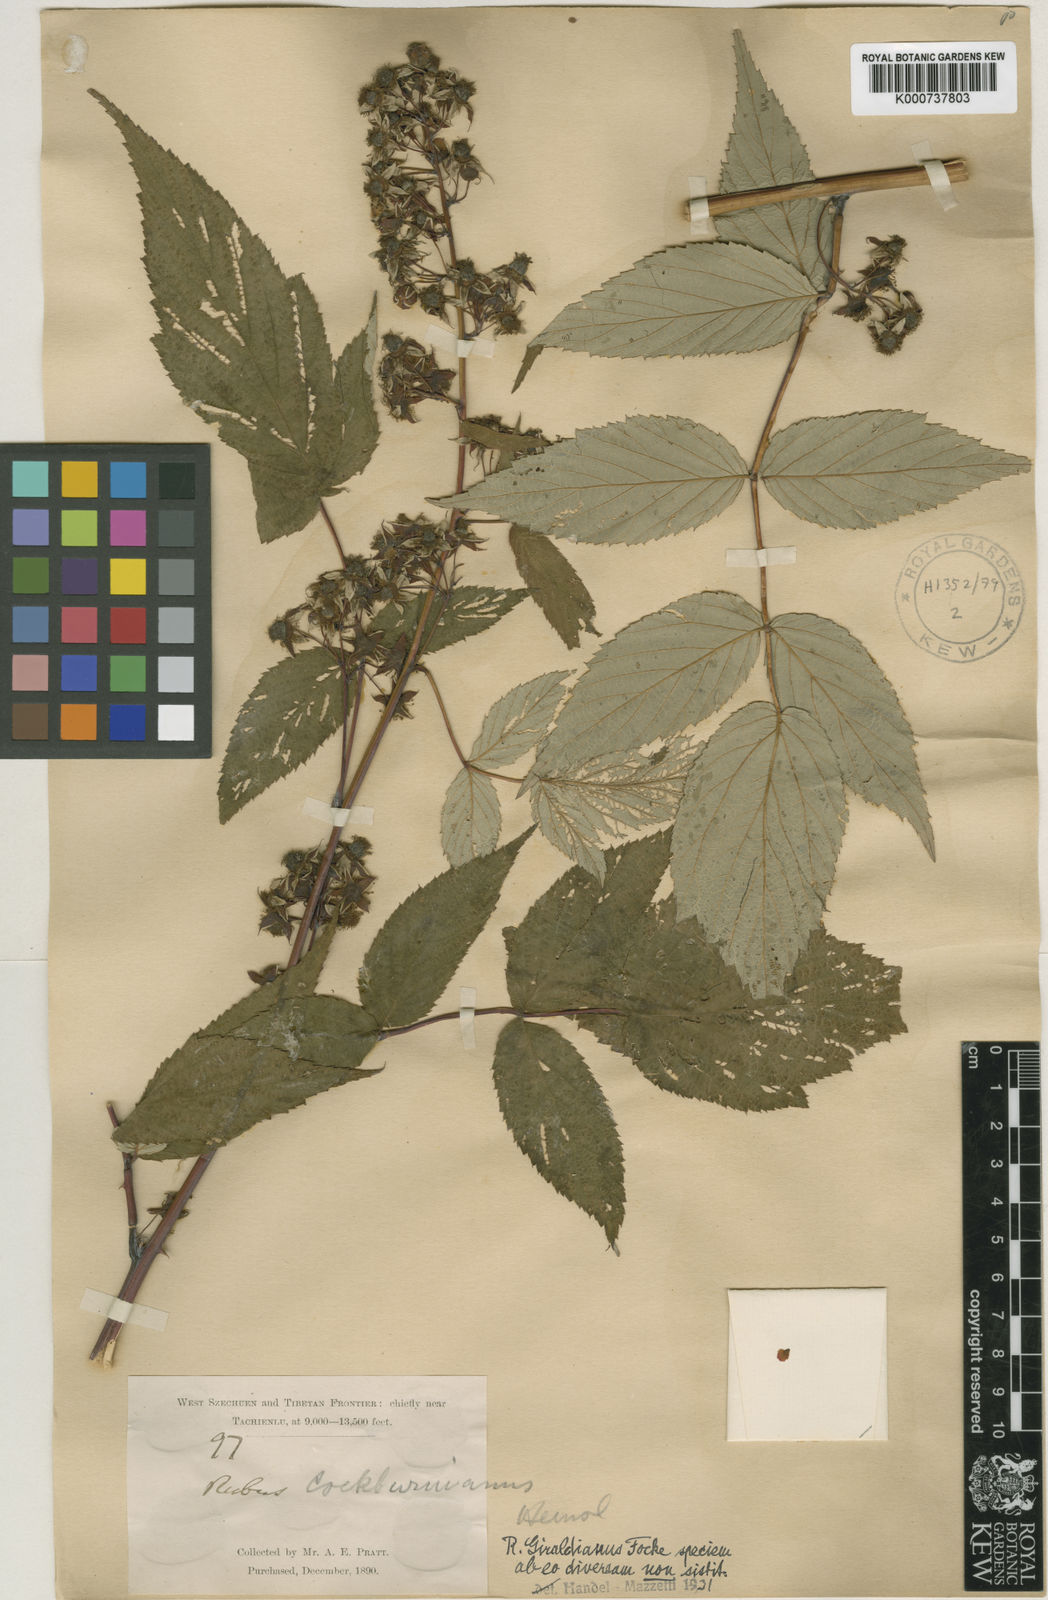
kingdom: Plantae
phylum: Tracheophyta
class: Magnoliopsida
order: Rosales
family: Rosaceae
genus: Rubus
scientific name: Rubus cockburnianus
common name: White-stemmed bramble
